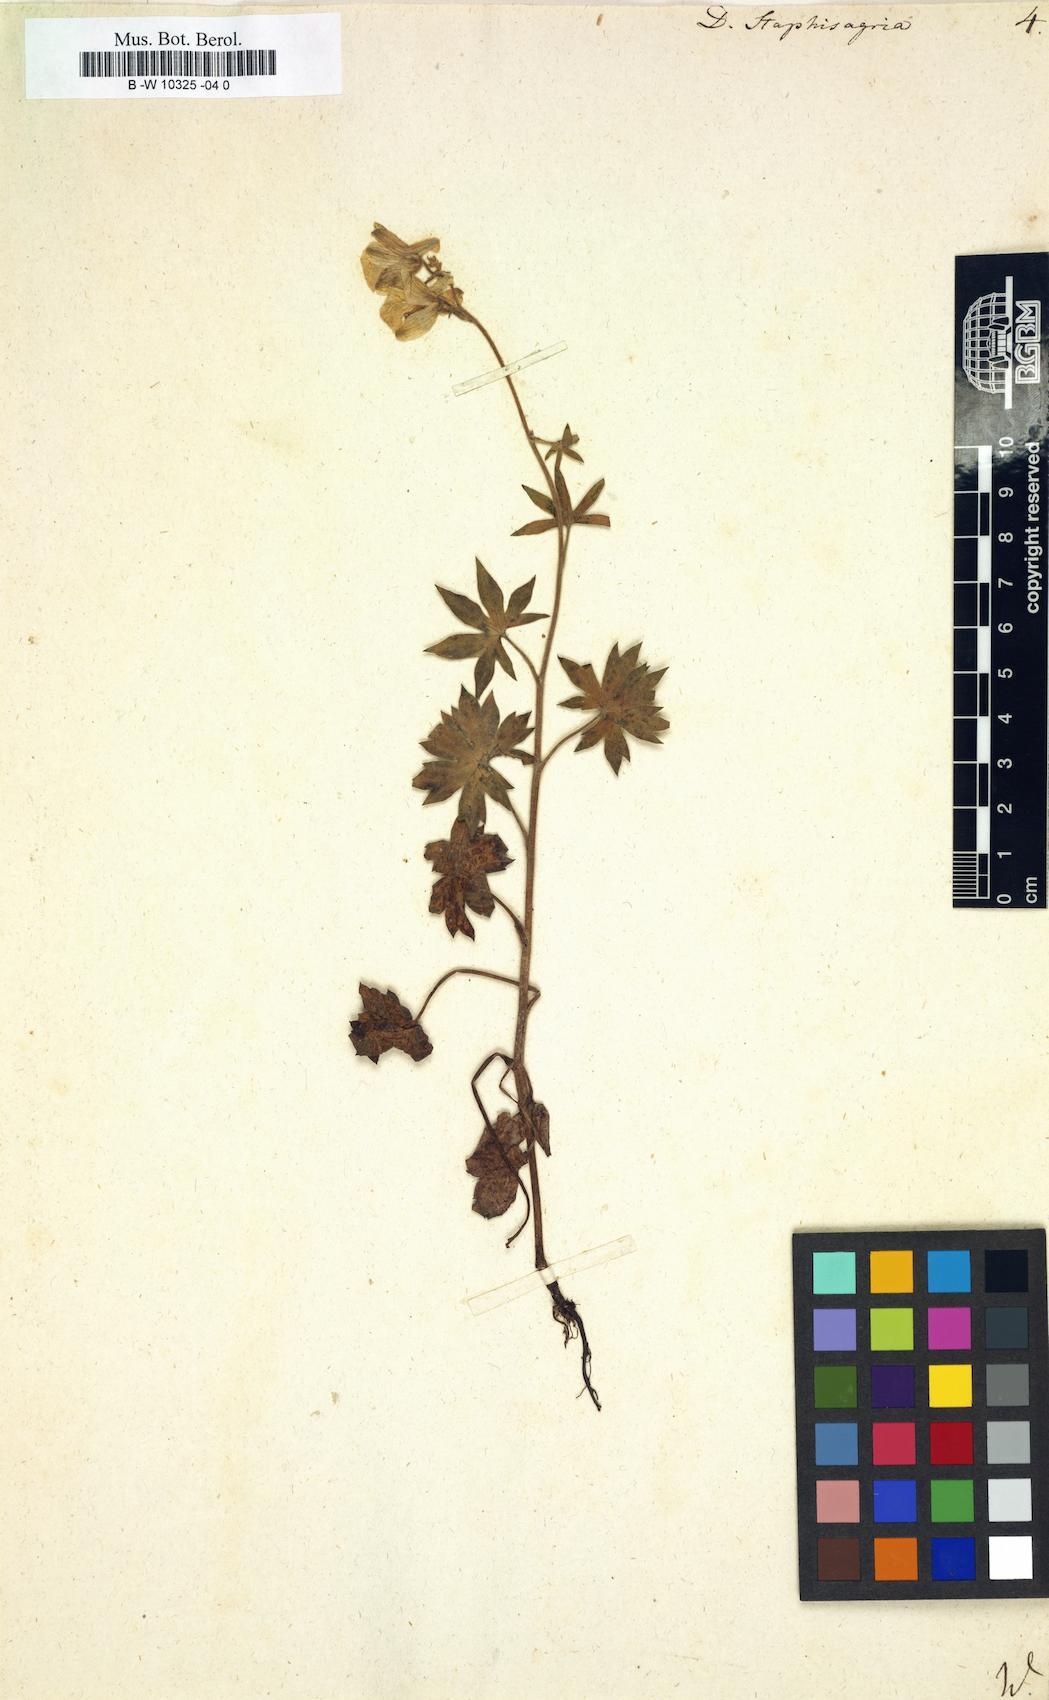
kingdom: Plantae
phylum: Tracheophyta
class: Magnoliopsida
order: Ranunculales
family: Ranunculaceae
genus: Staphisagria
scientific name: Staphisagria macrosperma
